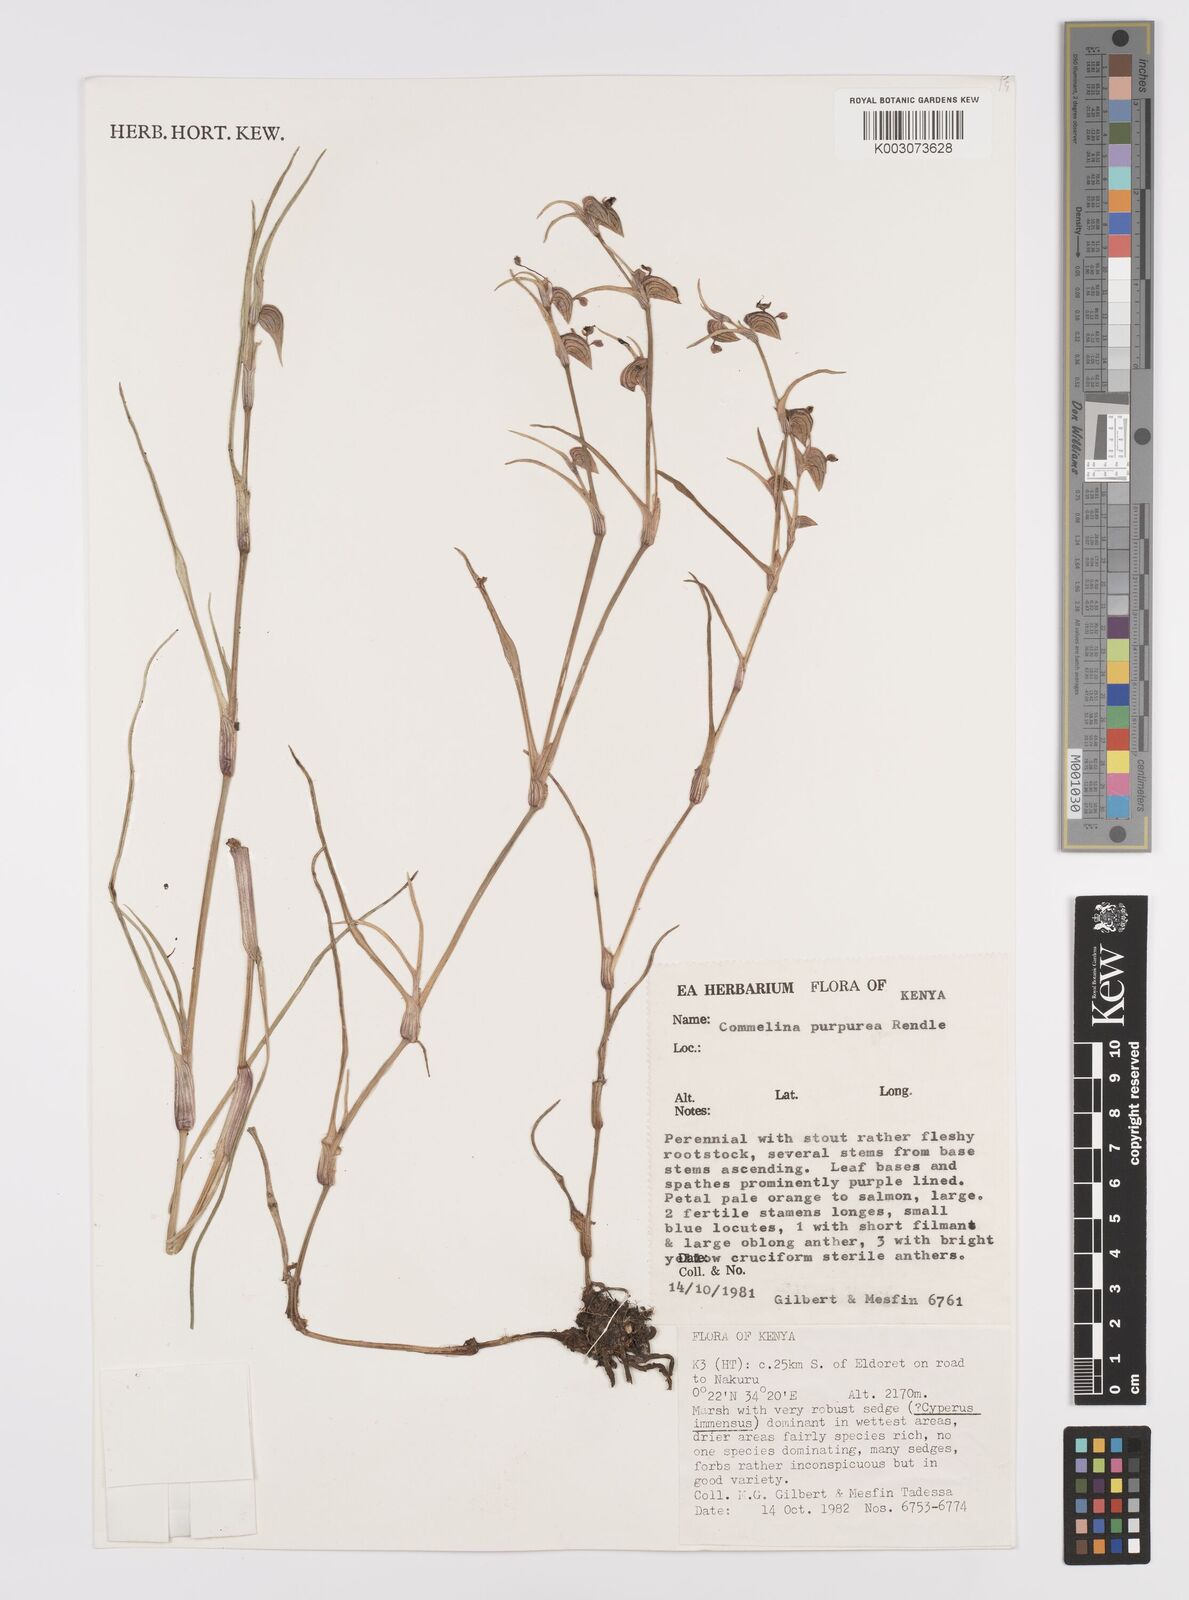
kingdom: Plantae
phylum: Tracheophyta
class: Liliopsida
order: Commelinales
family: Commelinaceae
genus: Commelina
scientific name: Commelina purpurea
